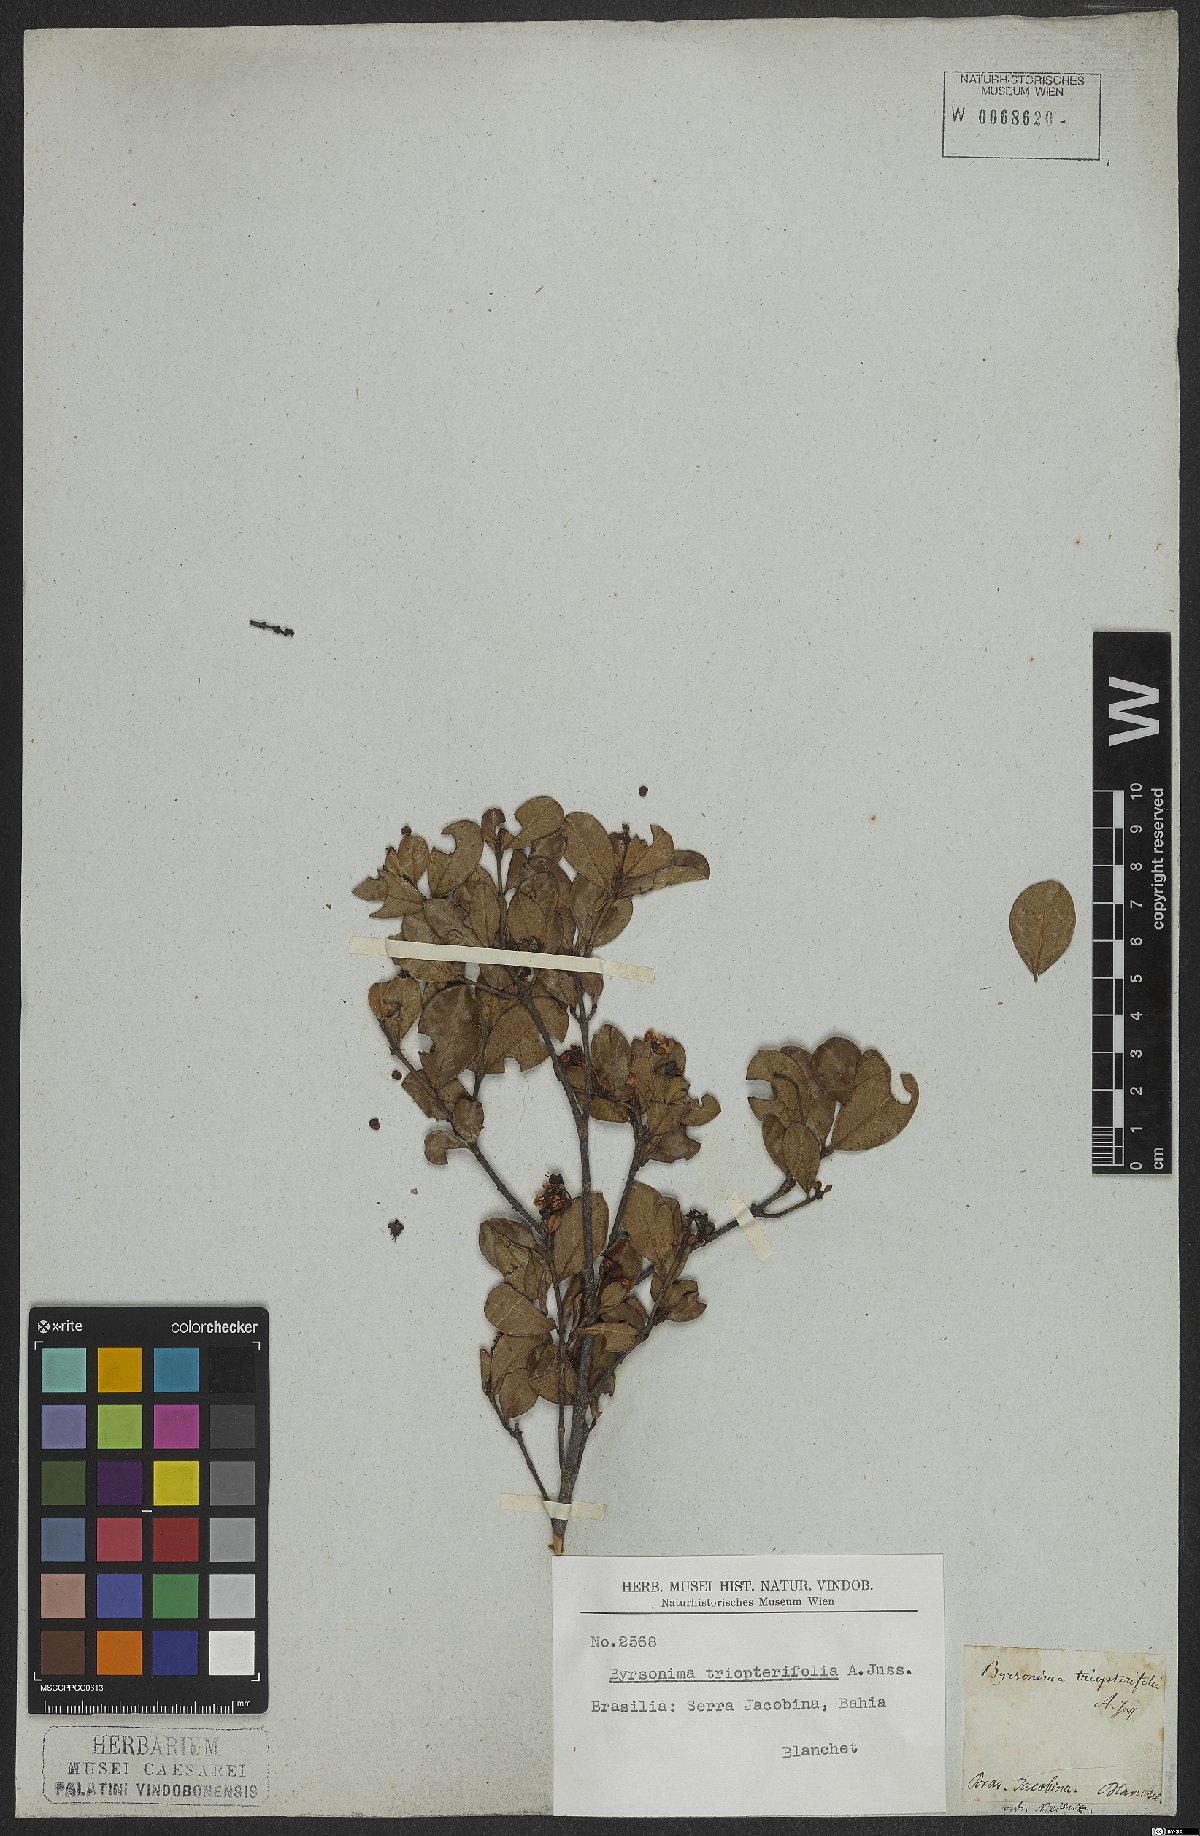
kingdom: Plantae
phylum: Tracheophyta
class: Magnoliopsida
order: Malpighiales
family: Malpighiaceae
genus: Byrsonima
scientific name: Byrsonima triopterifolia
